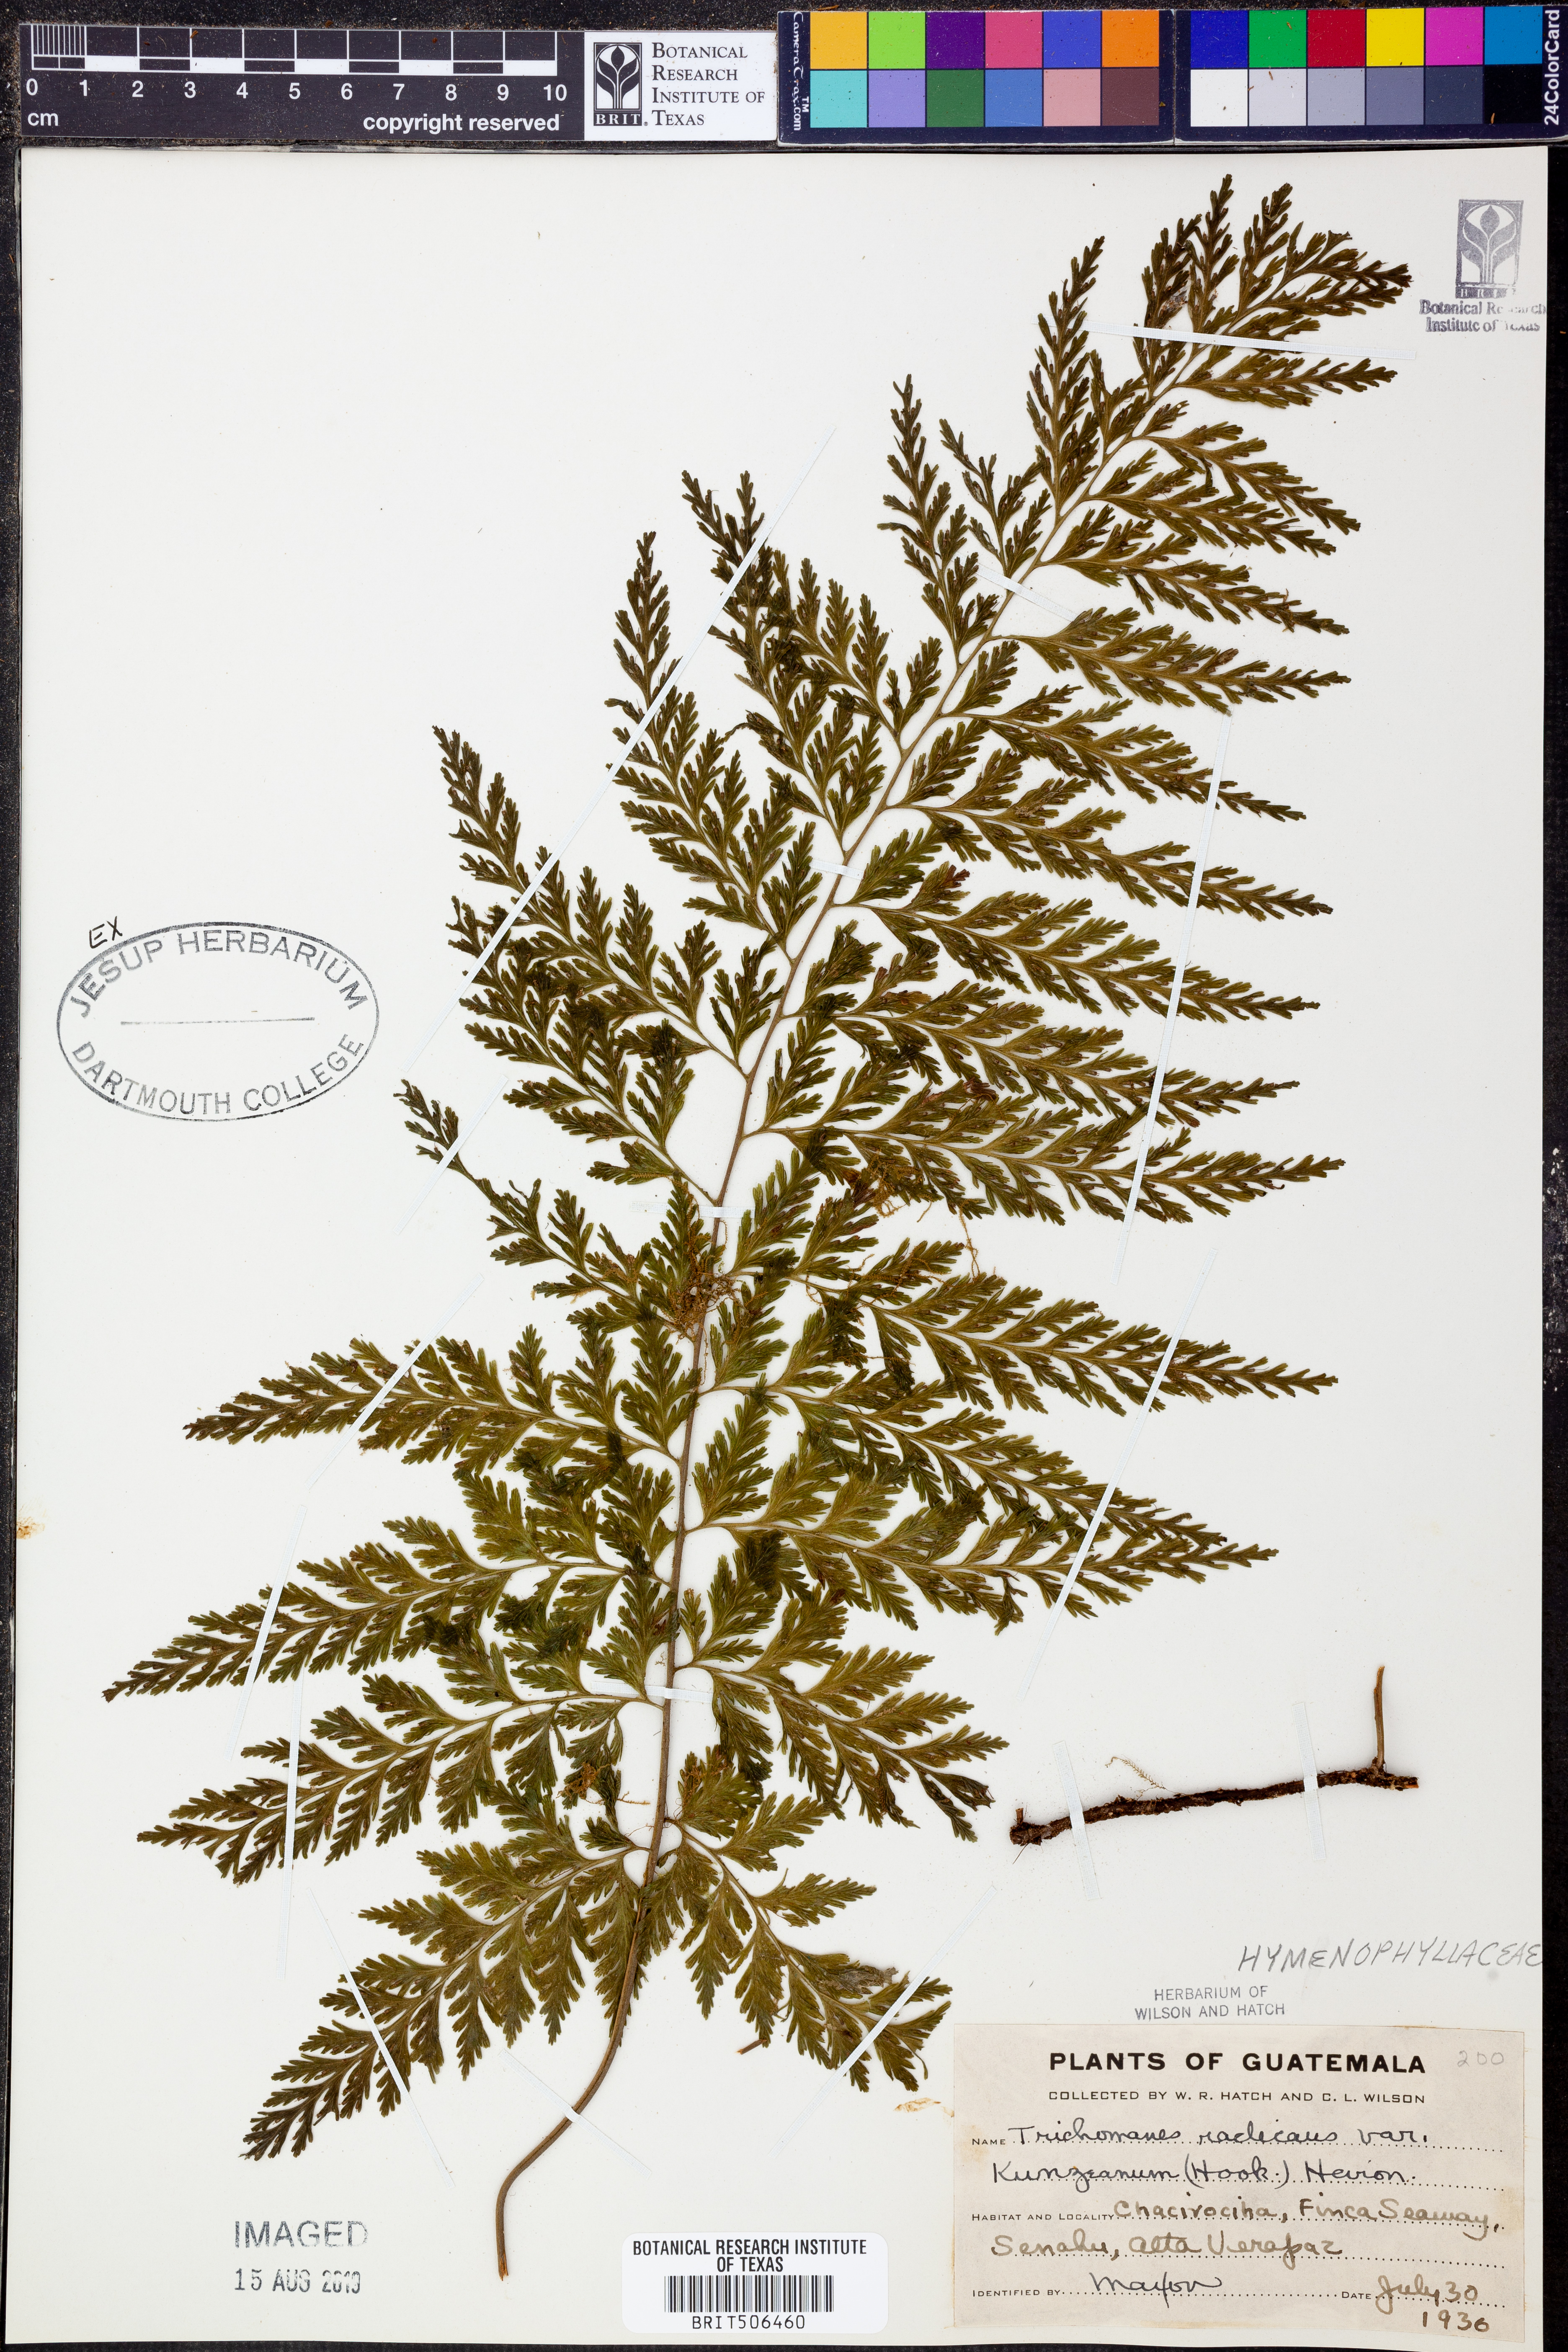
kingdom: Plantae
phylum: Tracheophyta
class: Polypodiopsida
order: Hymenophyllales
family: Hymenophyllaceae
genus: Vandenboschia
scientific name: Vandenboschia radicans
